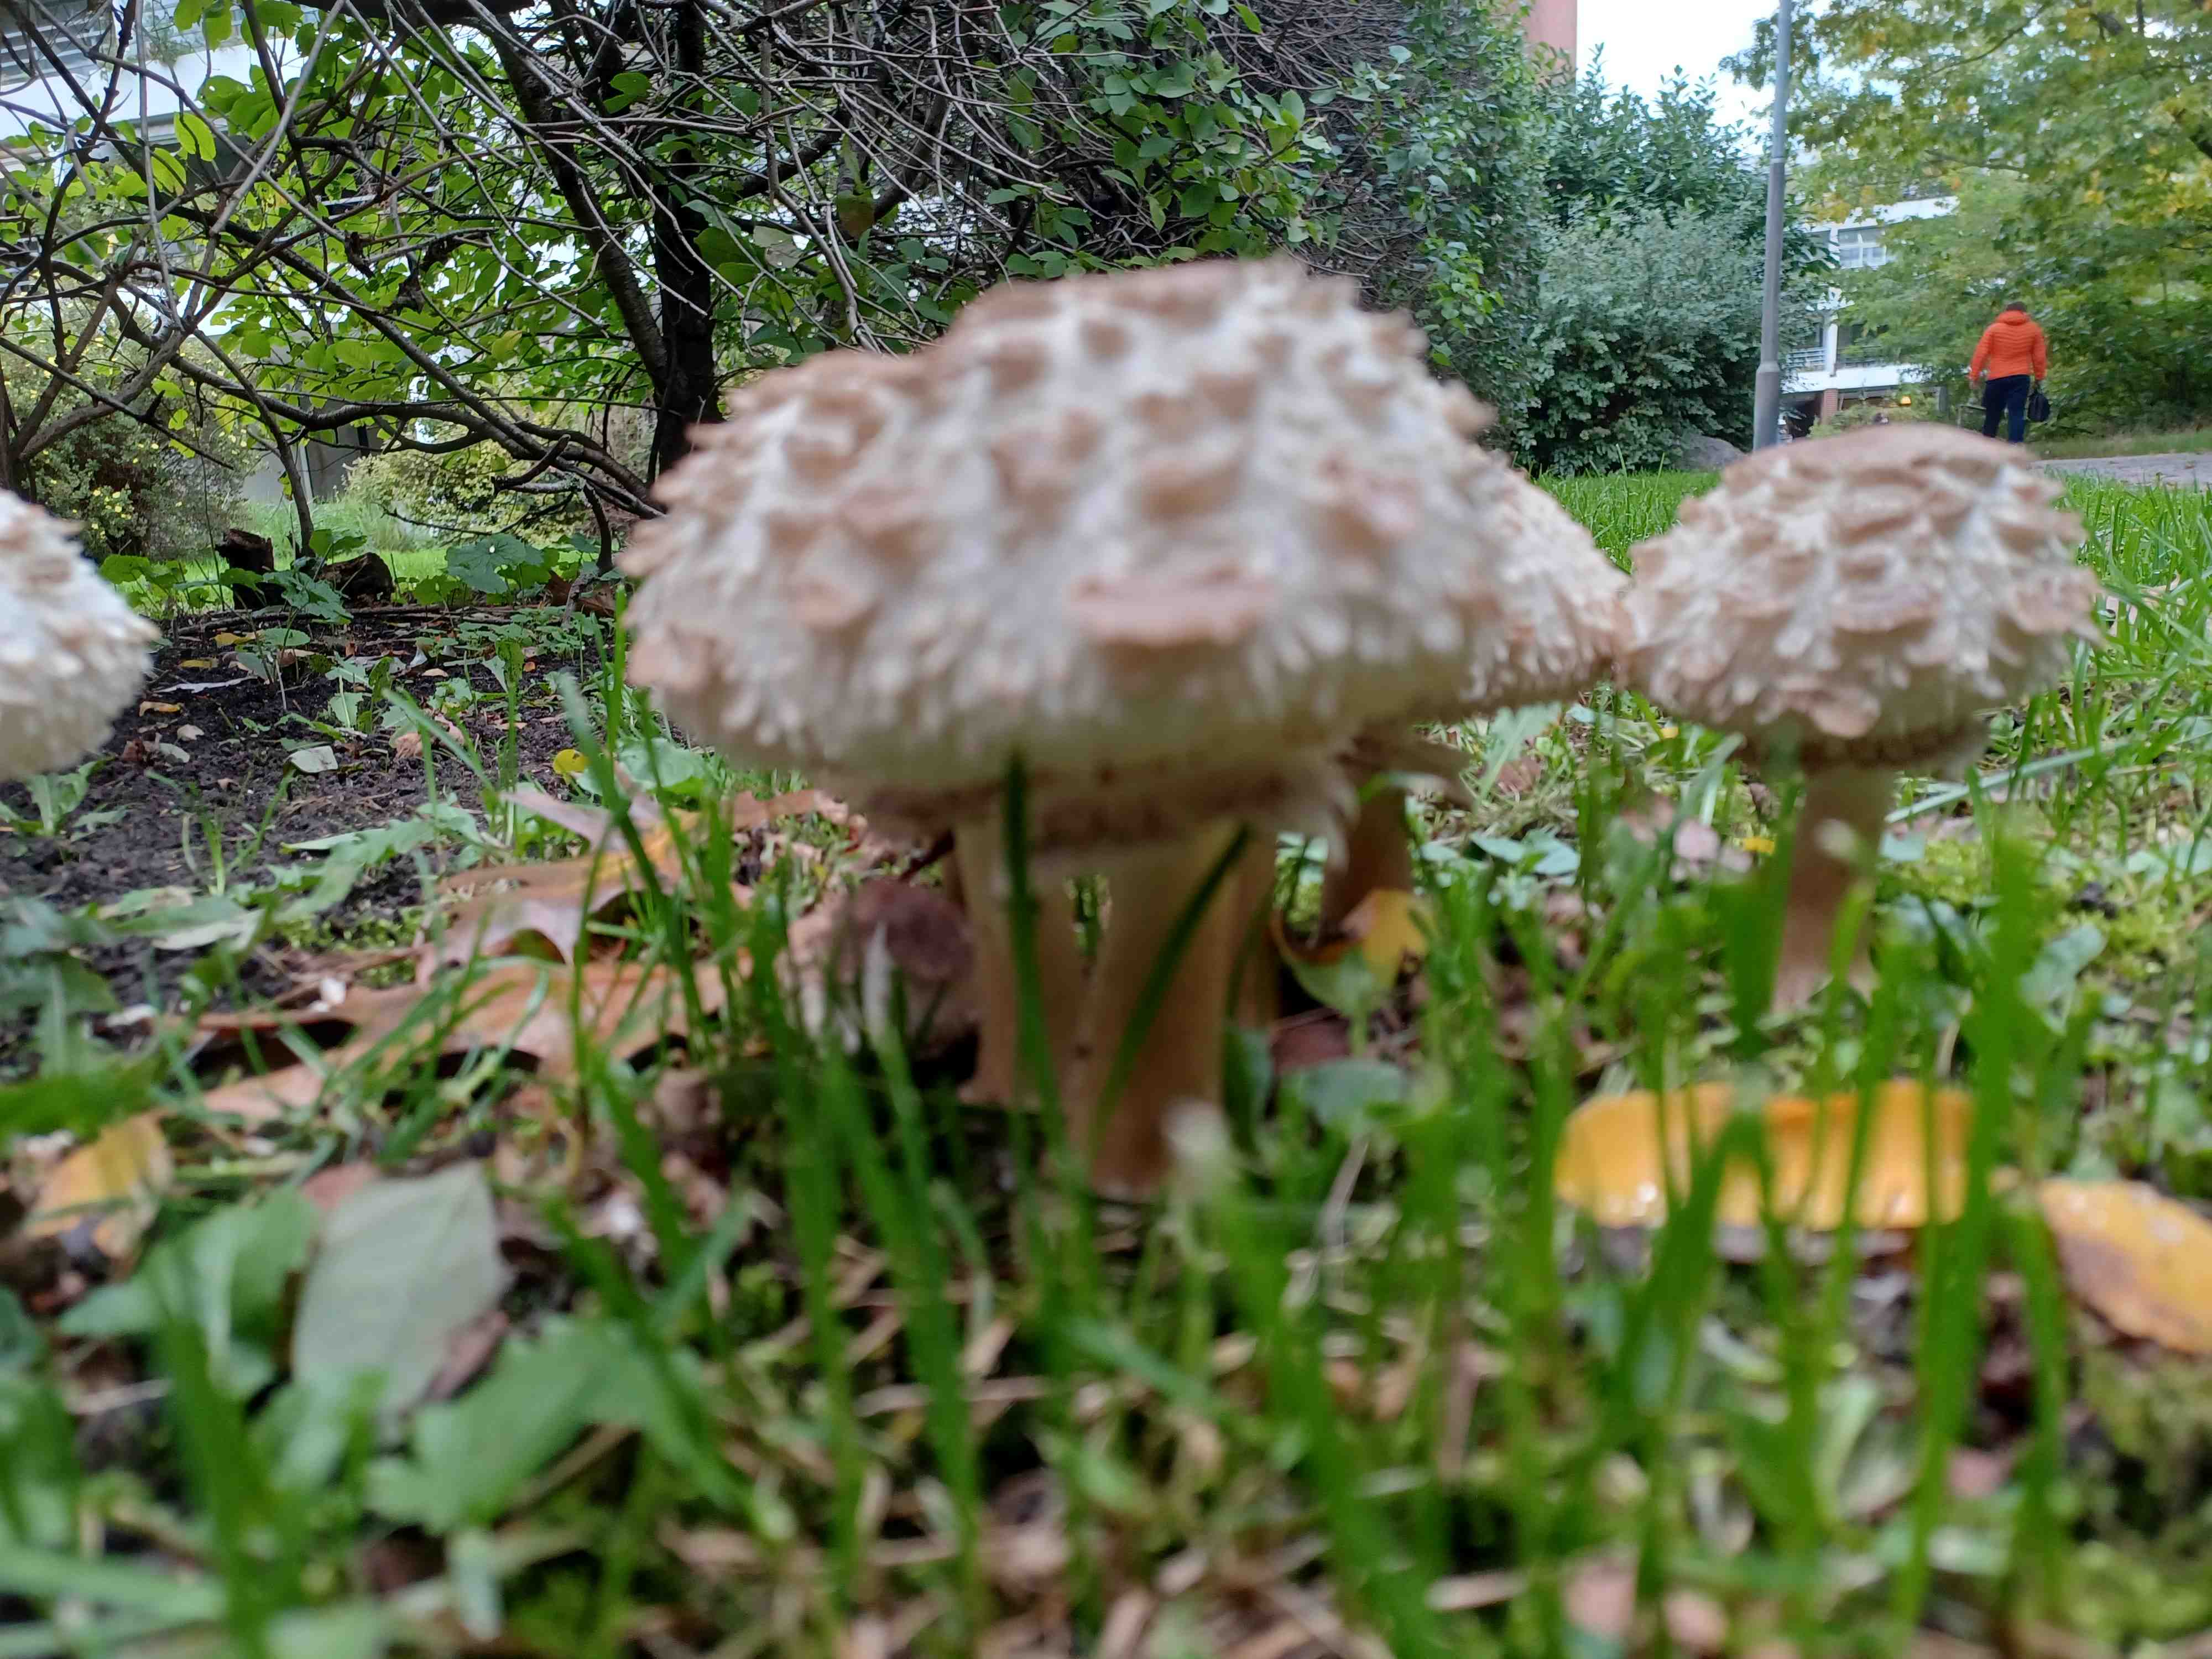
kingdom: Fungi
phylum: Basidiomycota
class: Agaricomycetes
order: Agaricales
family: Agaricaceae
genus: Chlorophyllum
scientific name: Chlorophyllum rhacodes
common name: ægte rabarberhat
